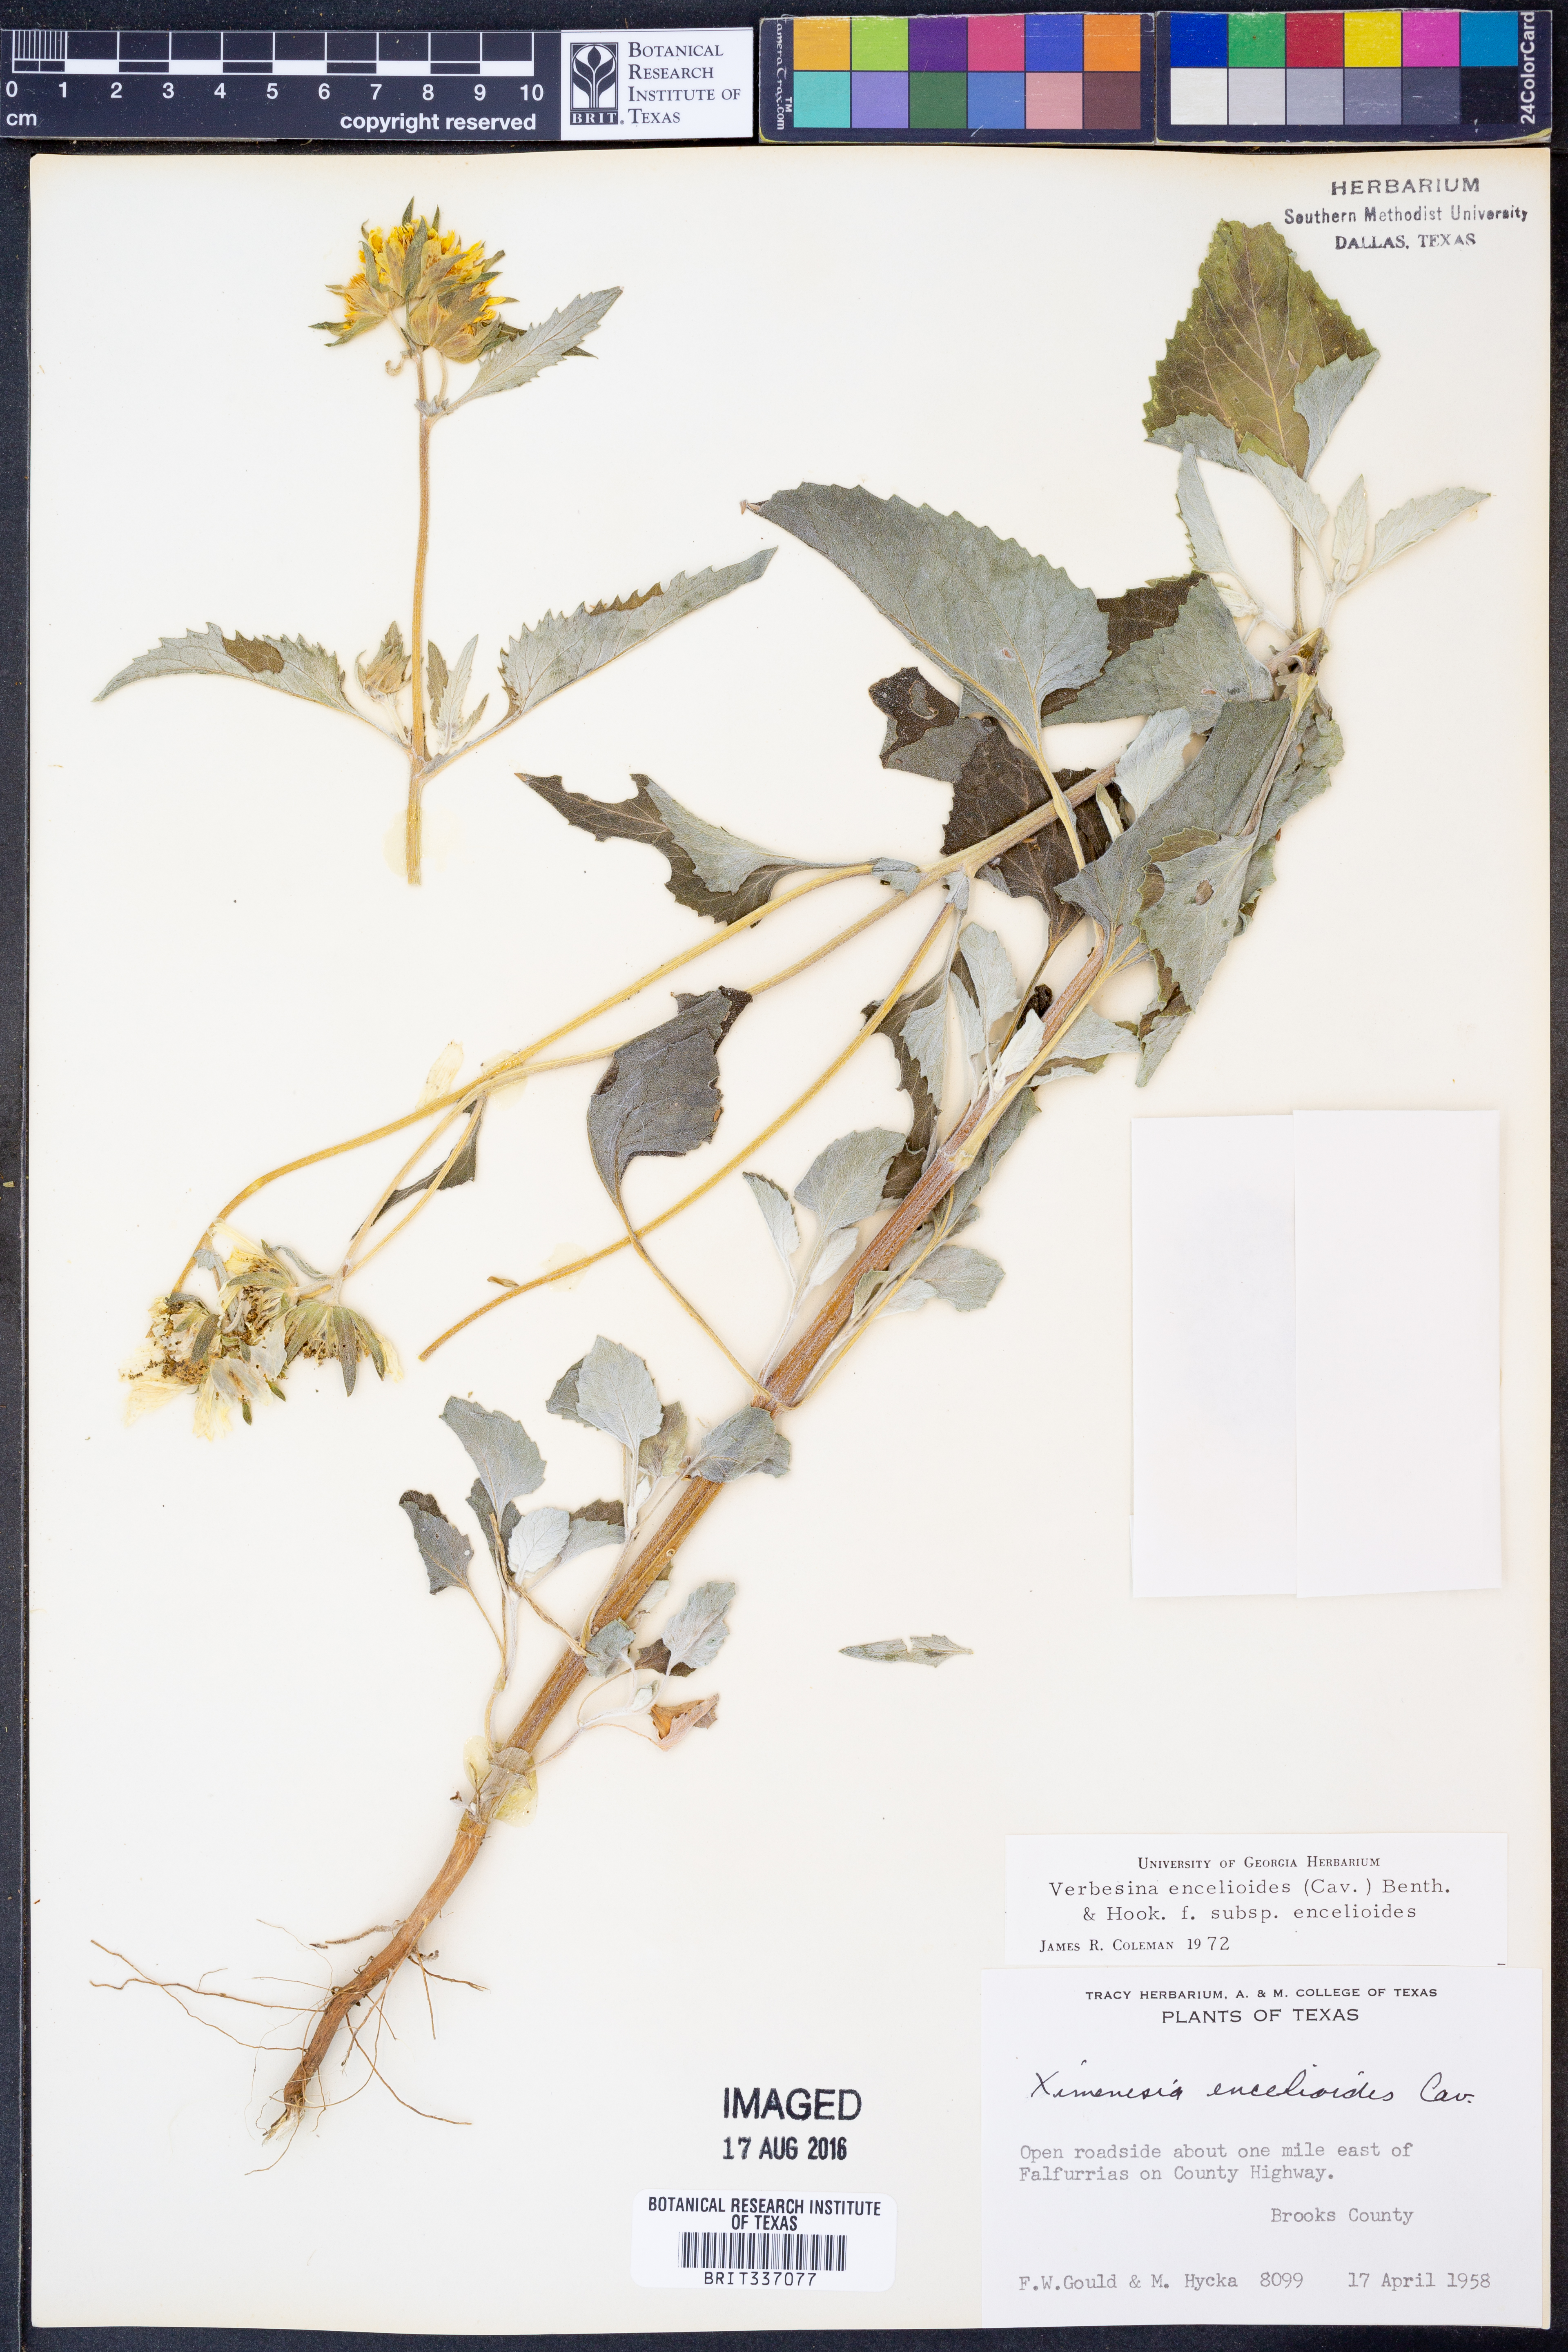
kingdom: Plantae
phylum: Tracheophyta
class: Magnoliopsida
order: Asterales
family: Asteraceae
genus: Verbesina
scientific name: Verbesina encelioides
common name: Golden crownbeard
